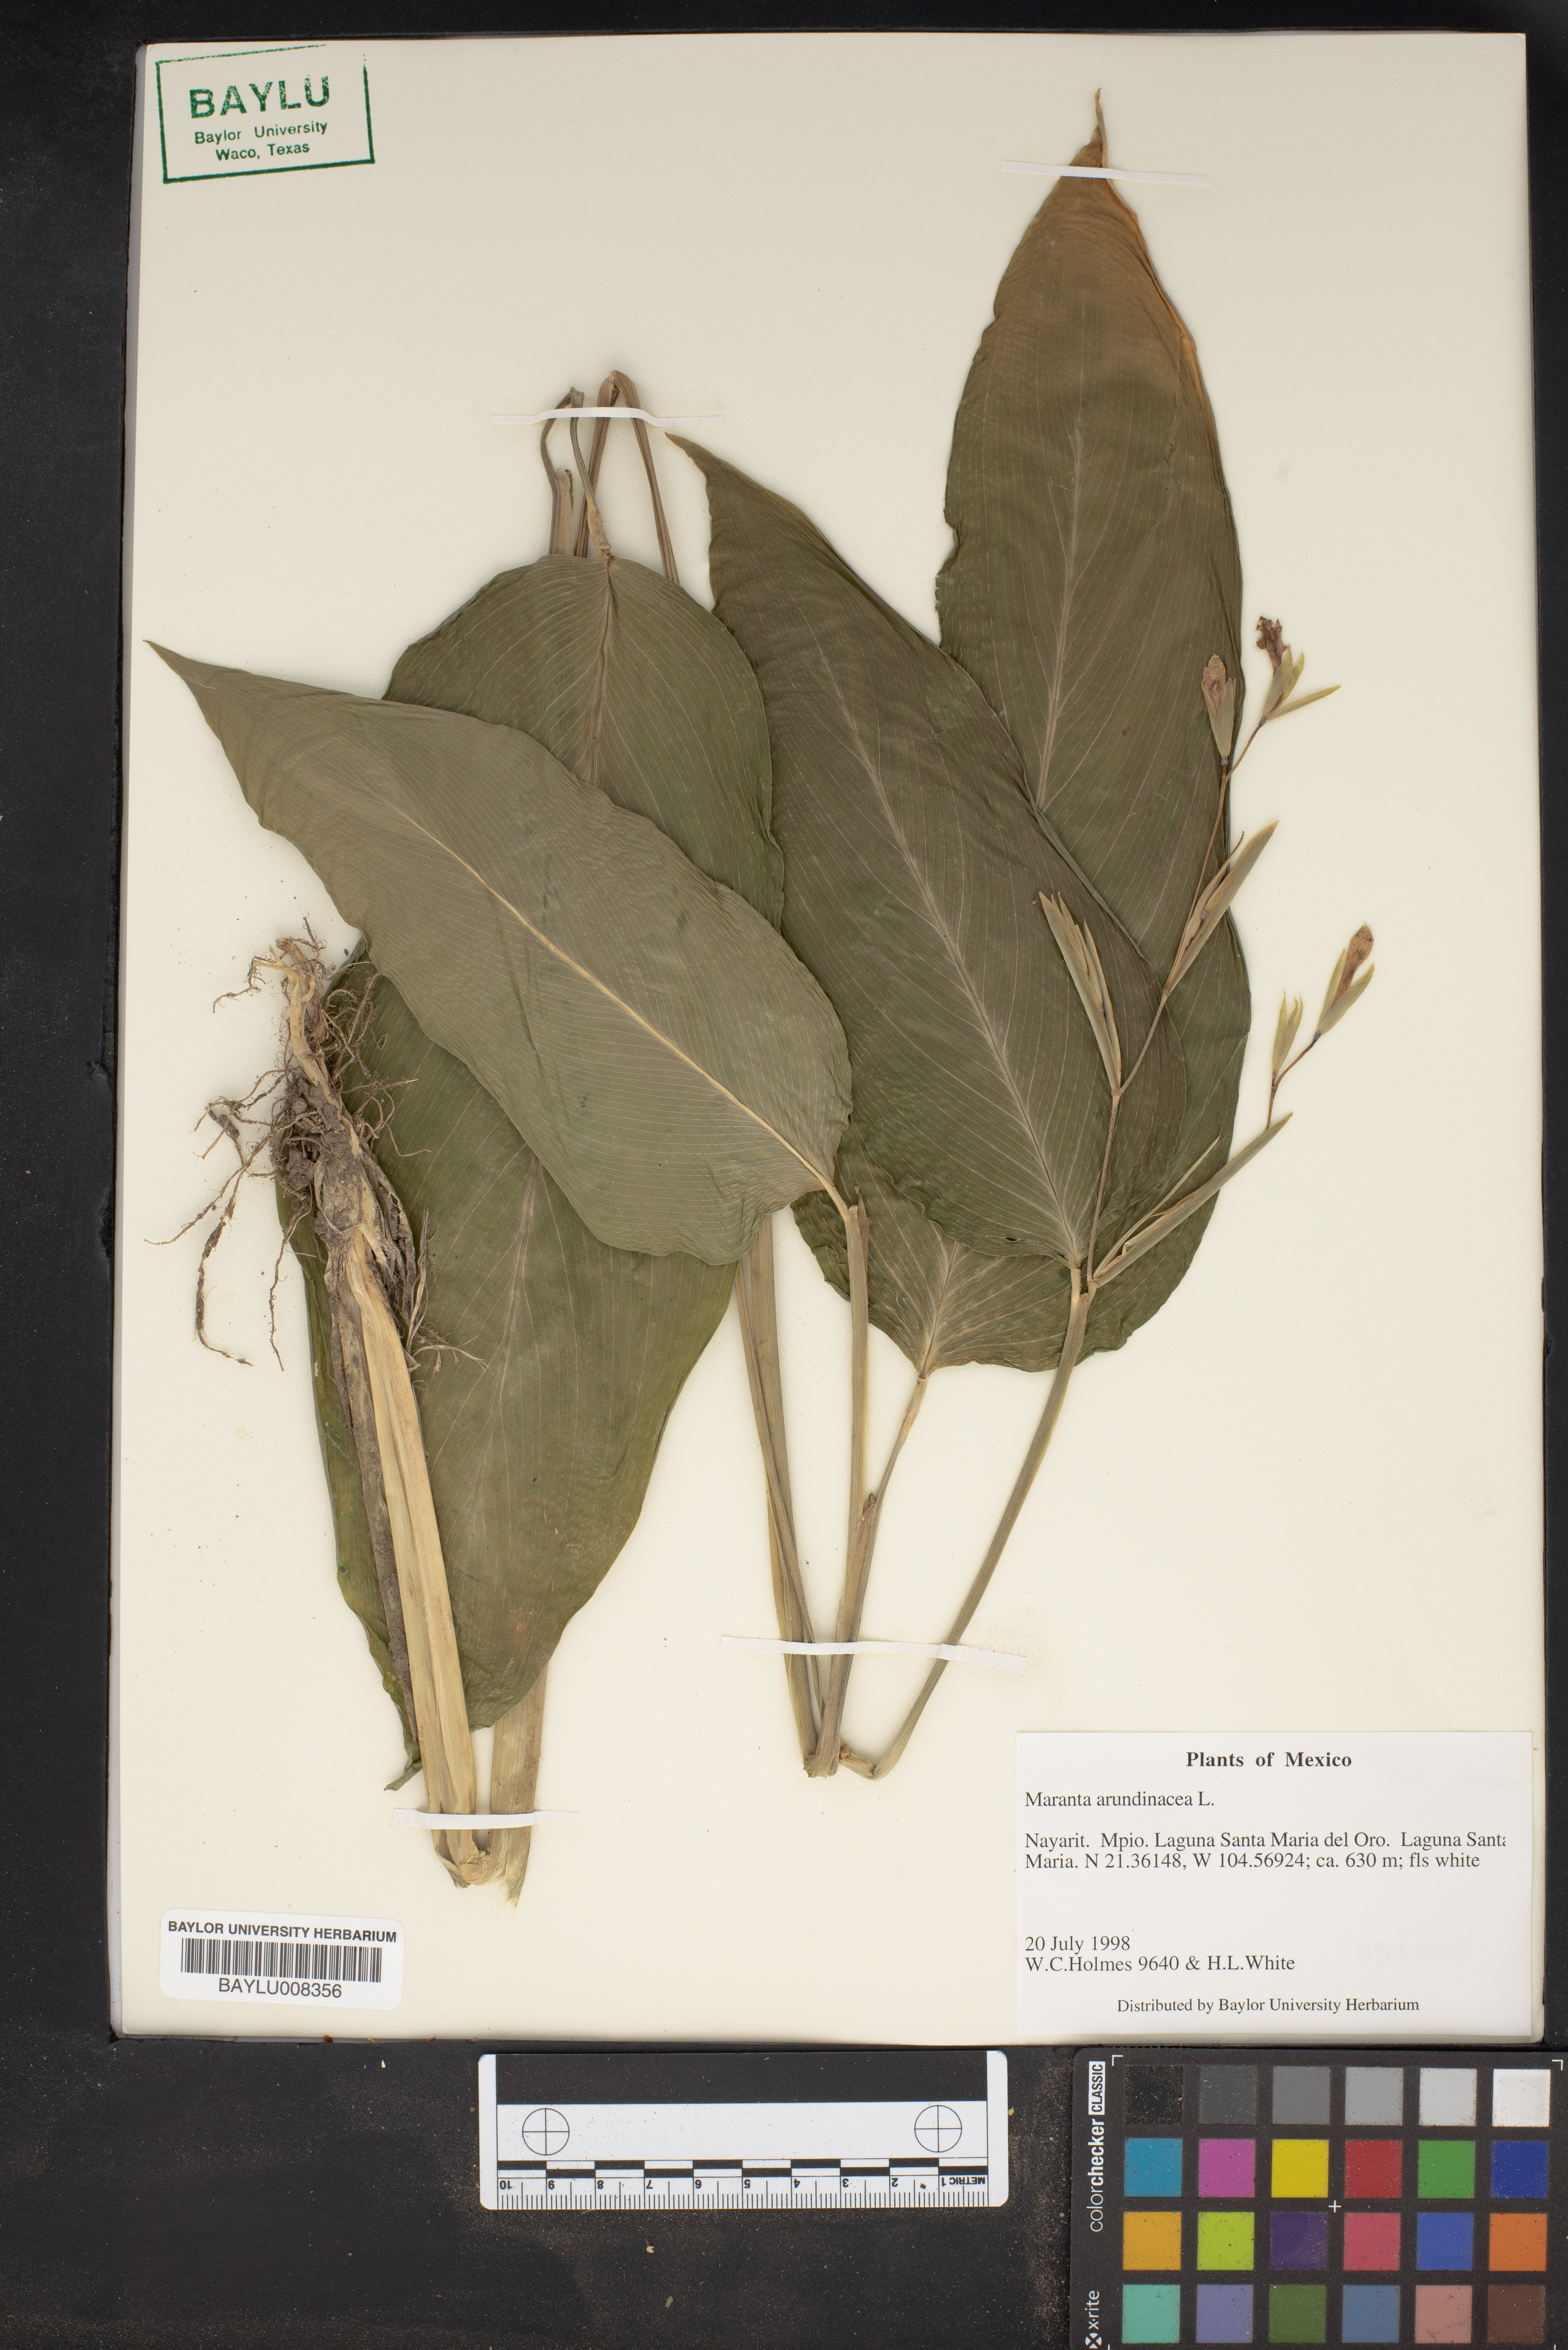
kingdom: Plantae
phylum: Tracheophyta
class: Liliopsida
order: Zingiberales
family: Marantaceae
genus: Maranta
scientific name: Maranta arundinacea
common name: Arrowroot
